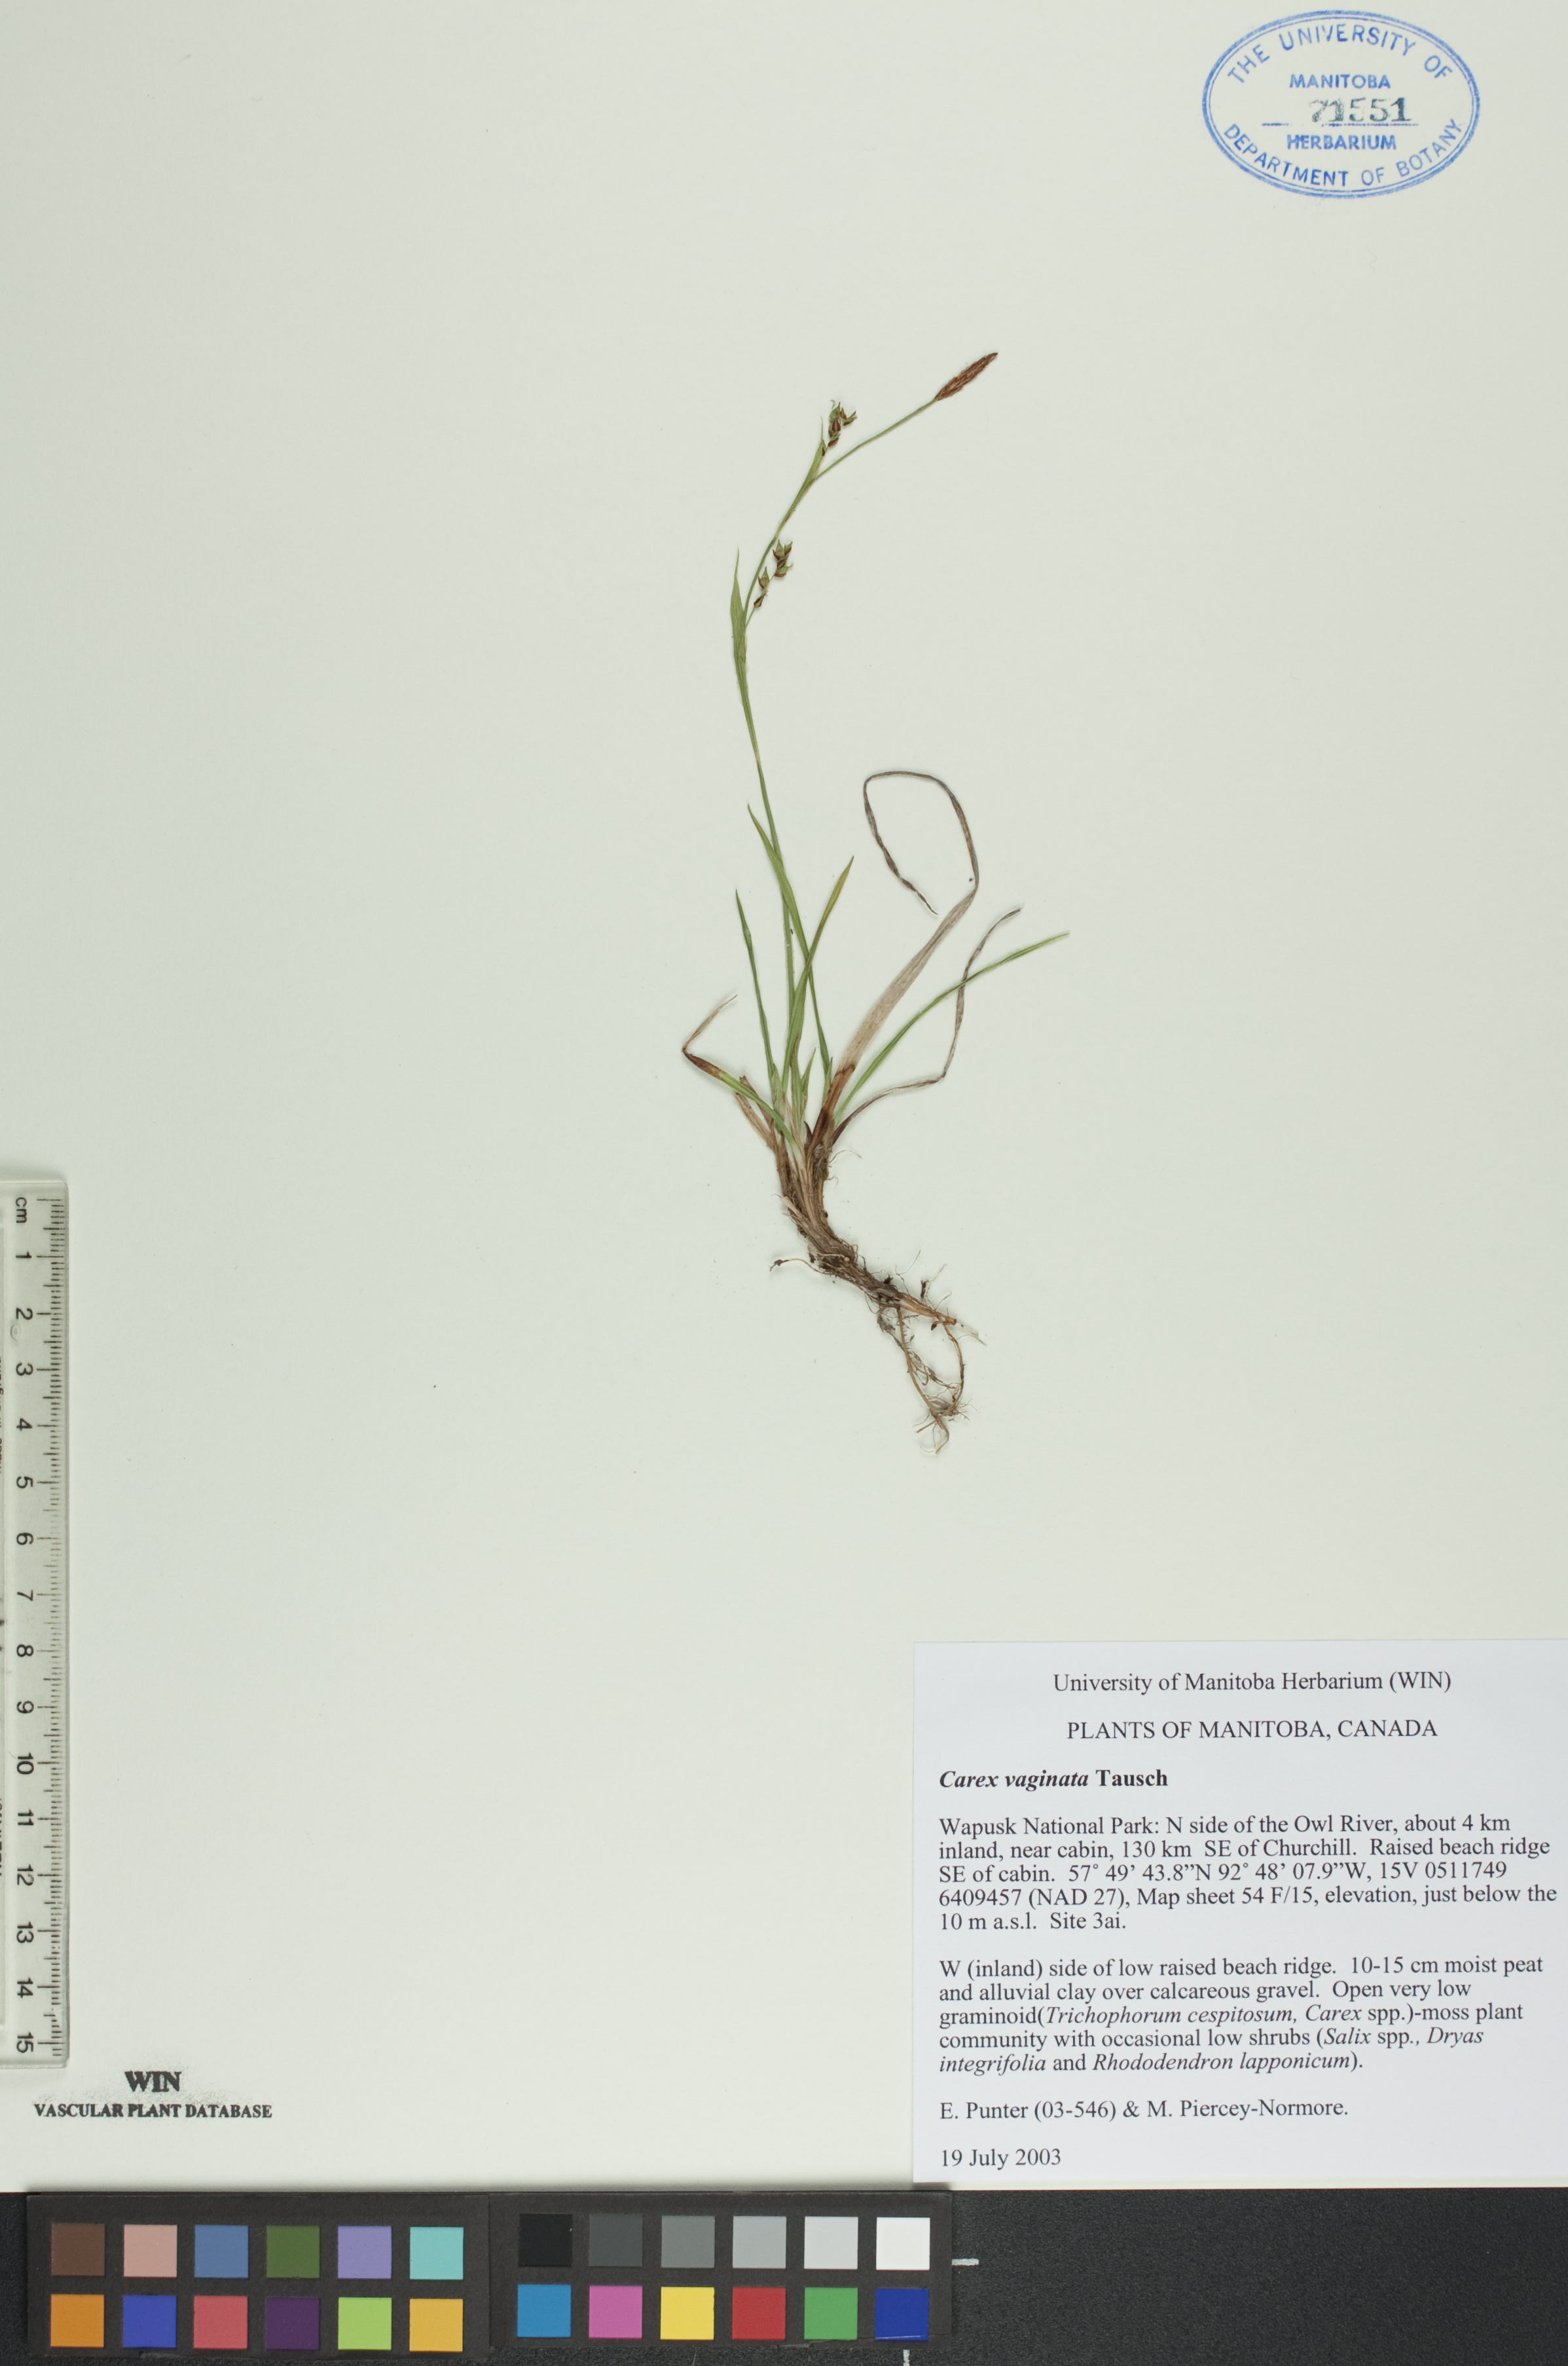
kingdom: Plantae
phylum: Tracheophyta
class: Liliopsida
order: Poales
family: Cyperaceae
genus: Carex
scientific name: Carex vaginata
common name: Sheathed sedge
